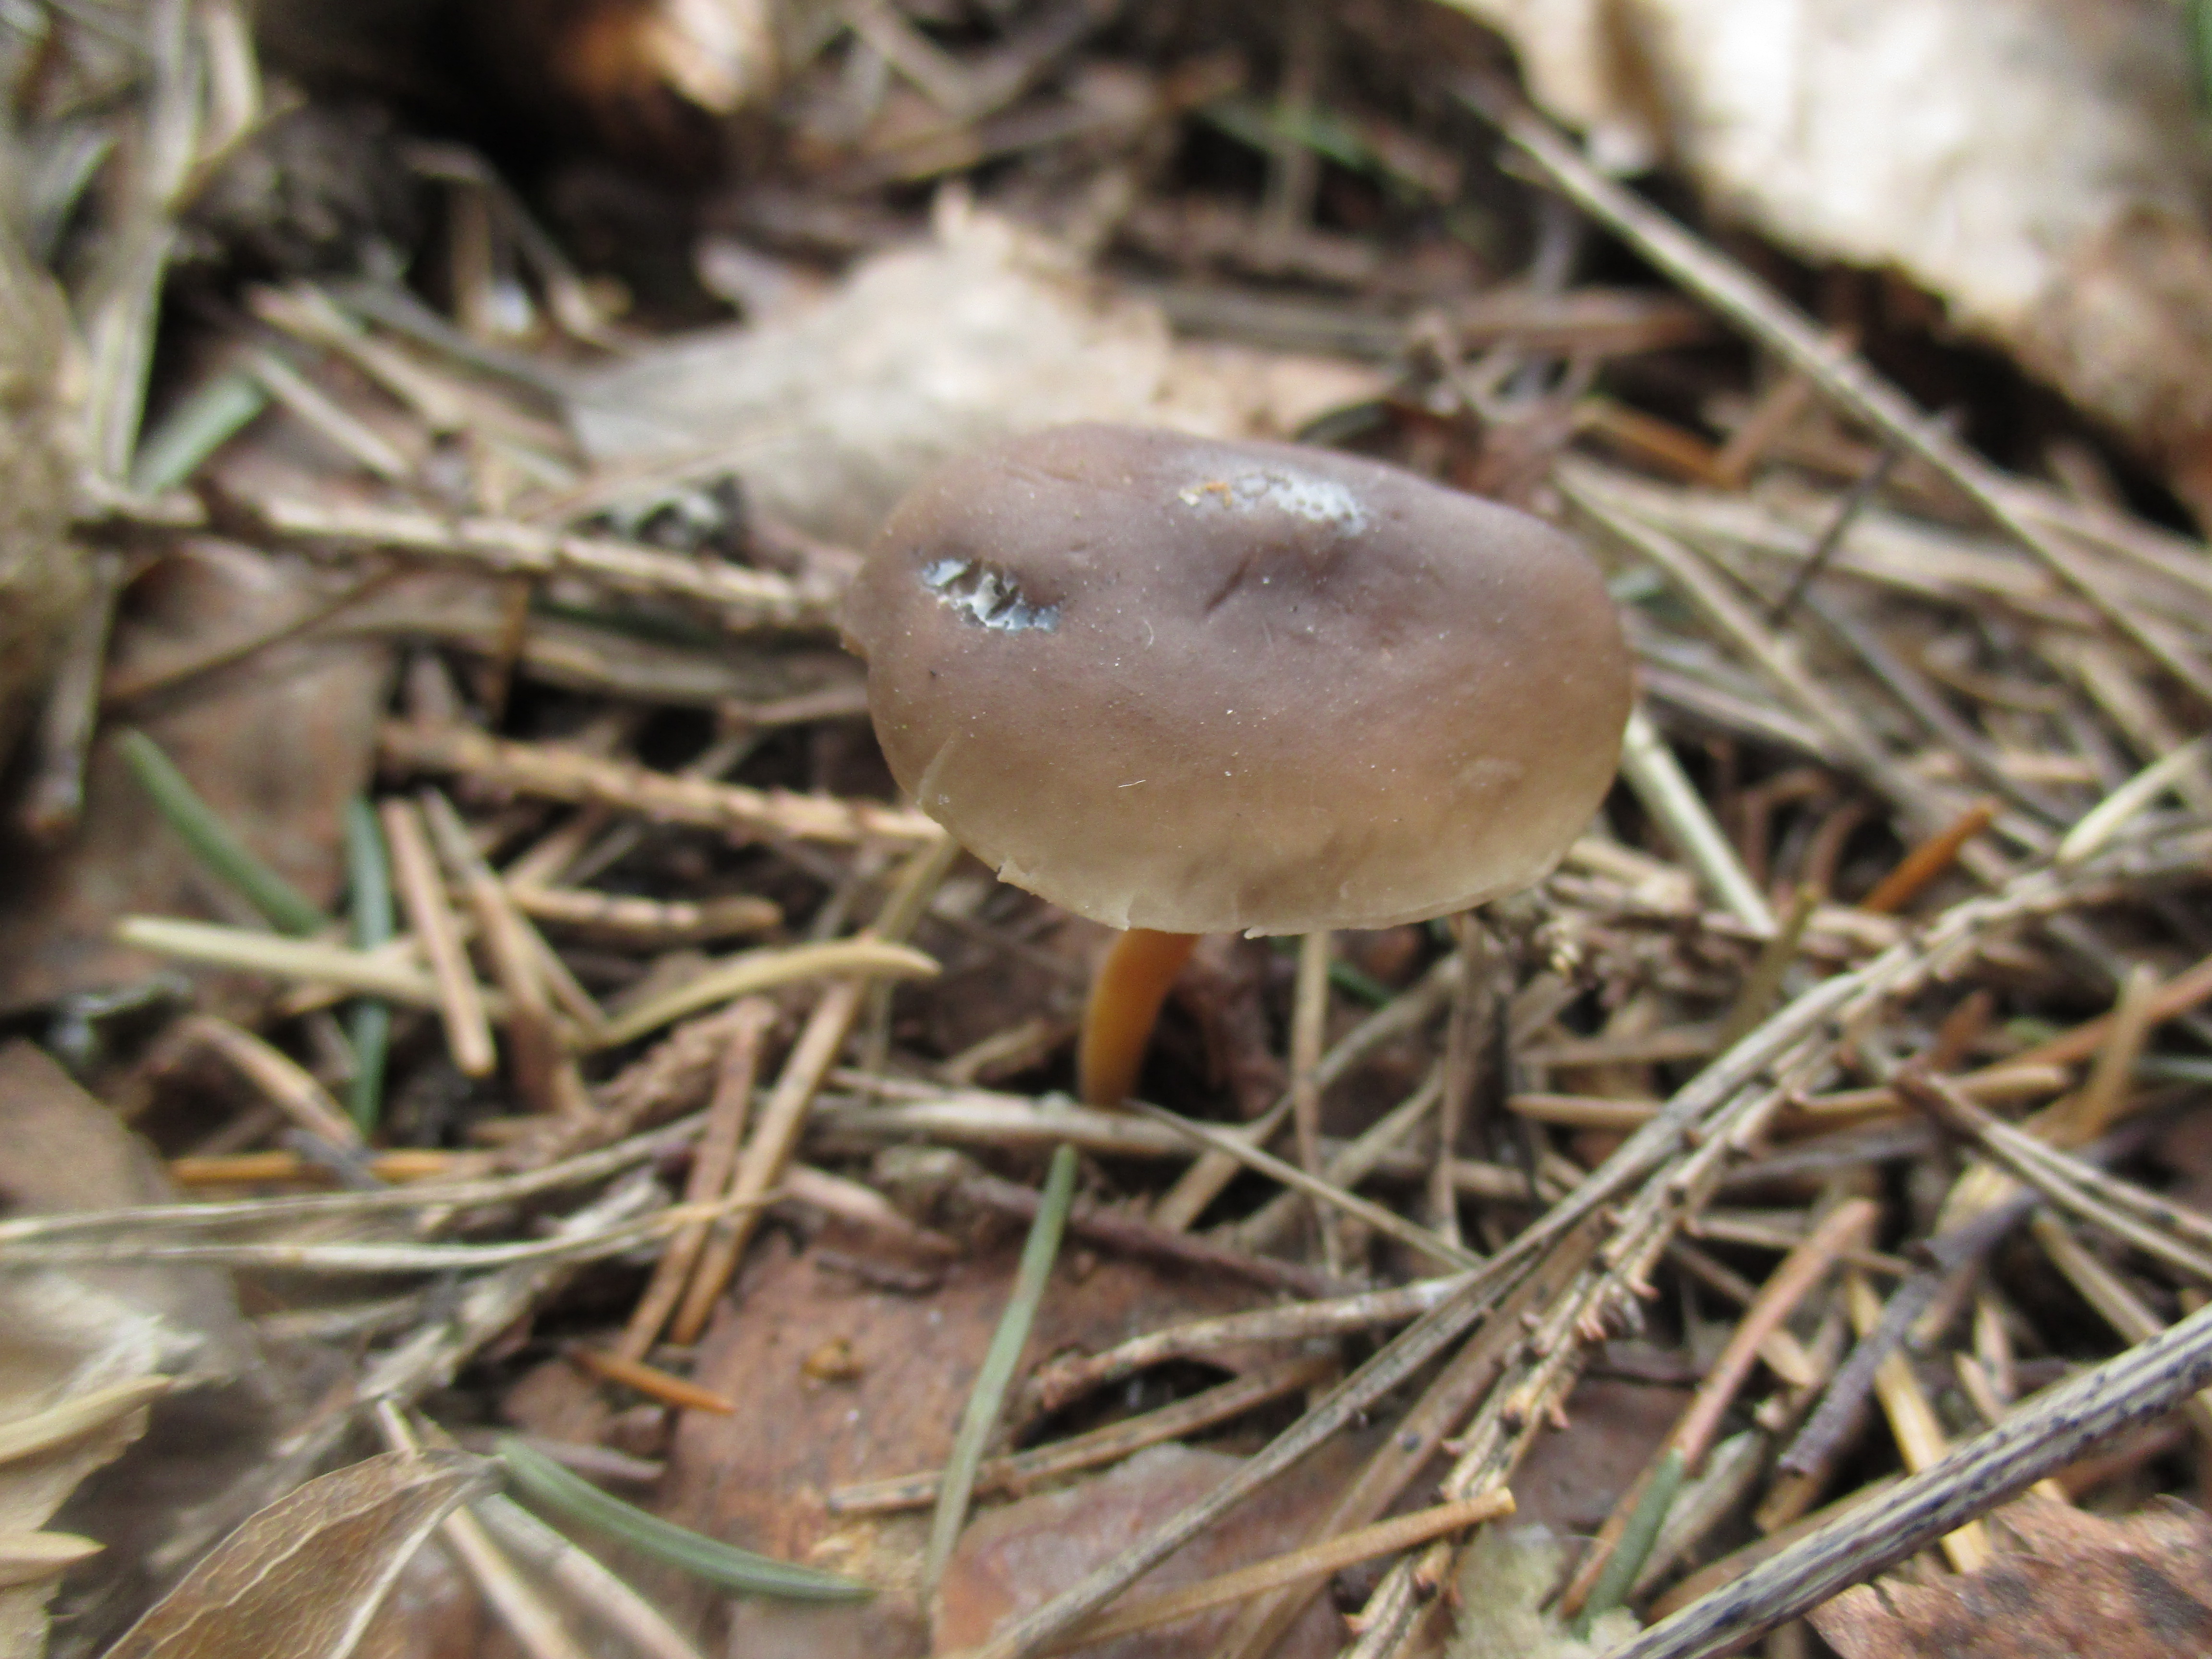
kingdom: Fungi
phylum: Basidiomycota
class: Agaricomycetes
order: Agaricales
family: Physalacriaceae
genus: Strobilurus
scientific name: Strobilurus esculentus
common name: Sprucecone cap
